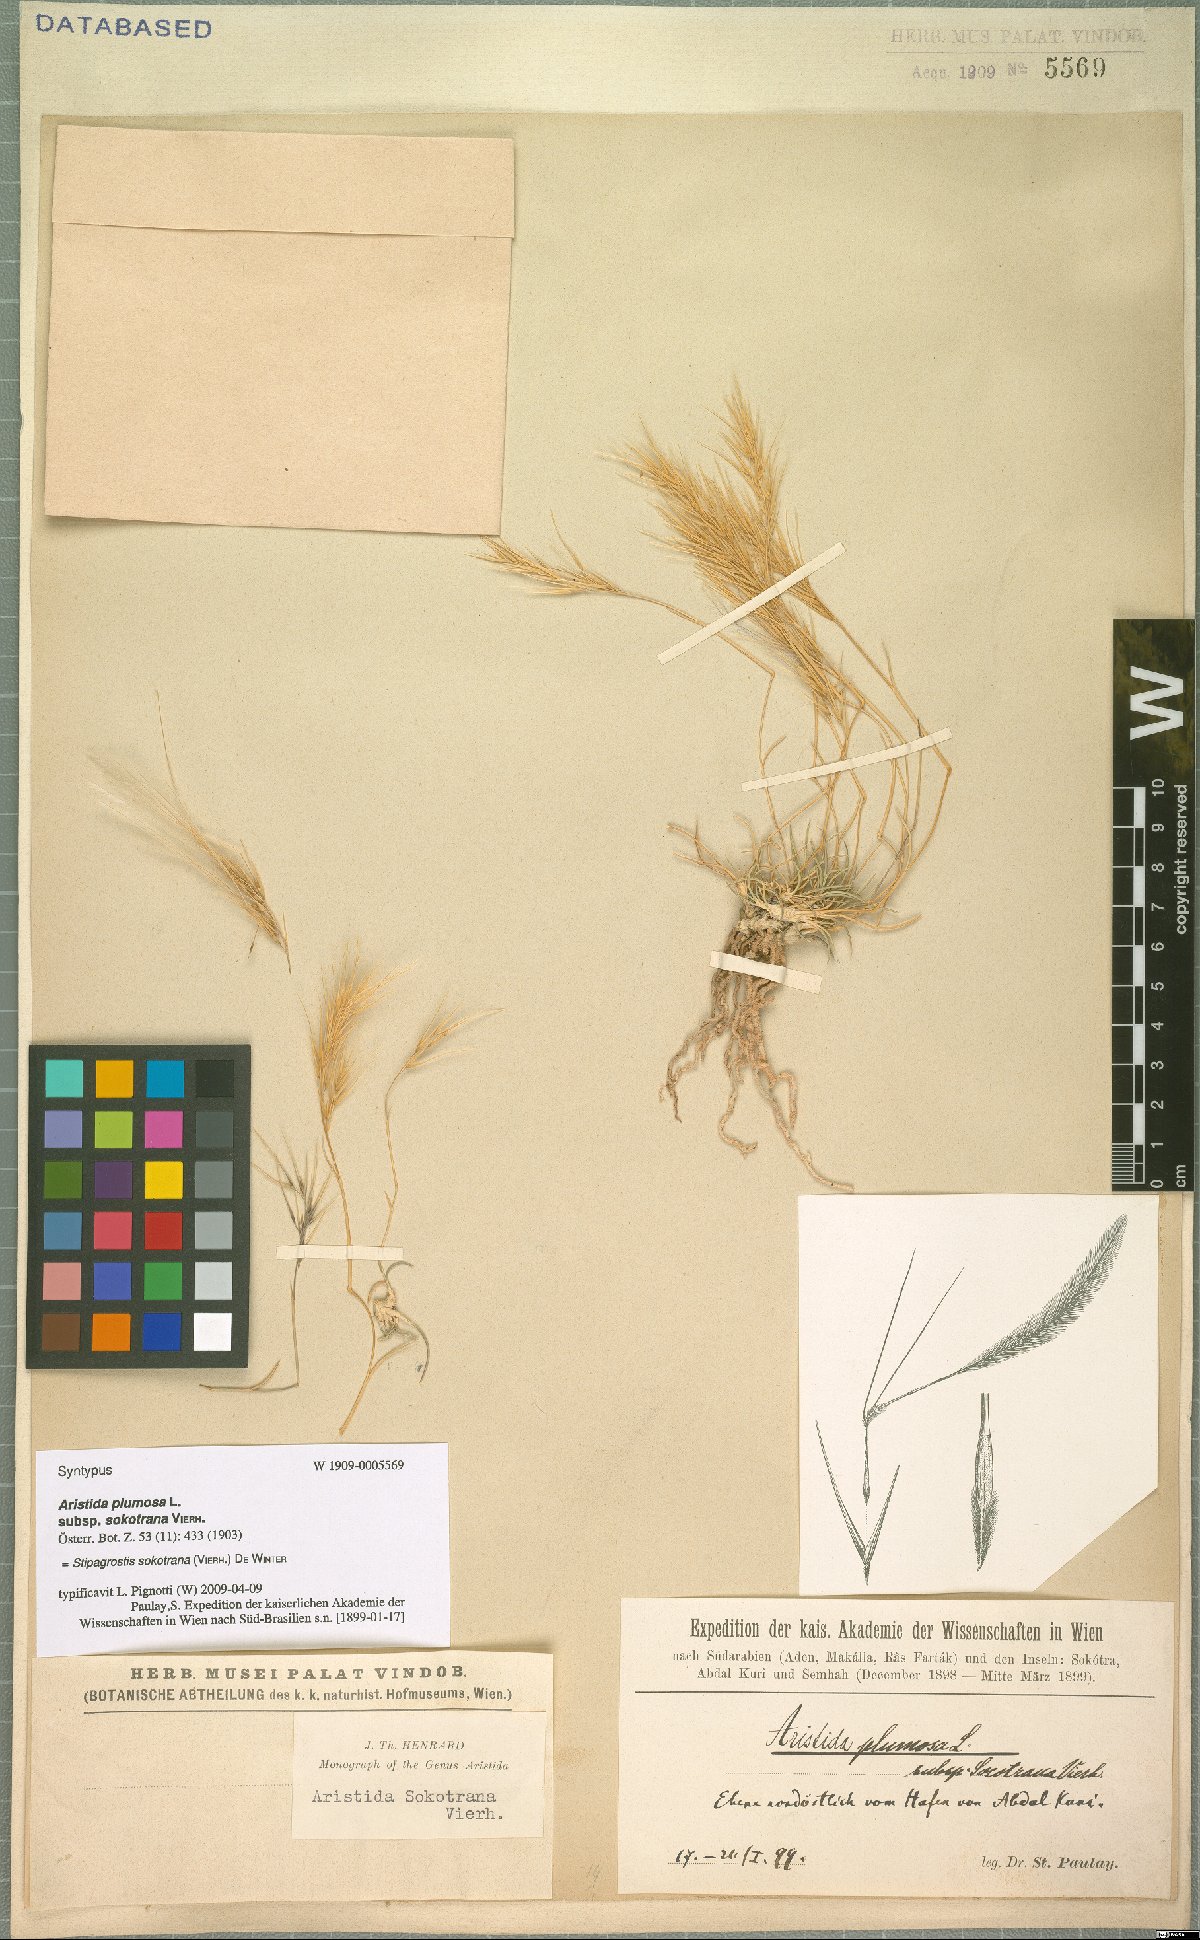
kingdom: Plantae
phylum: Tracheophyta
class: Liliopsida
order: Poales
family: Poaceae
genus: Stipagrostis
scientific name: Stipagrostis sokotrana
